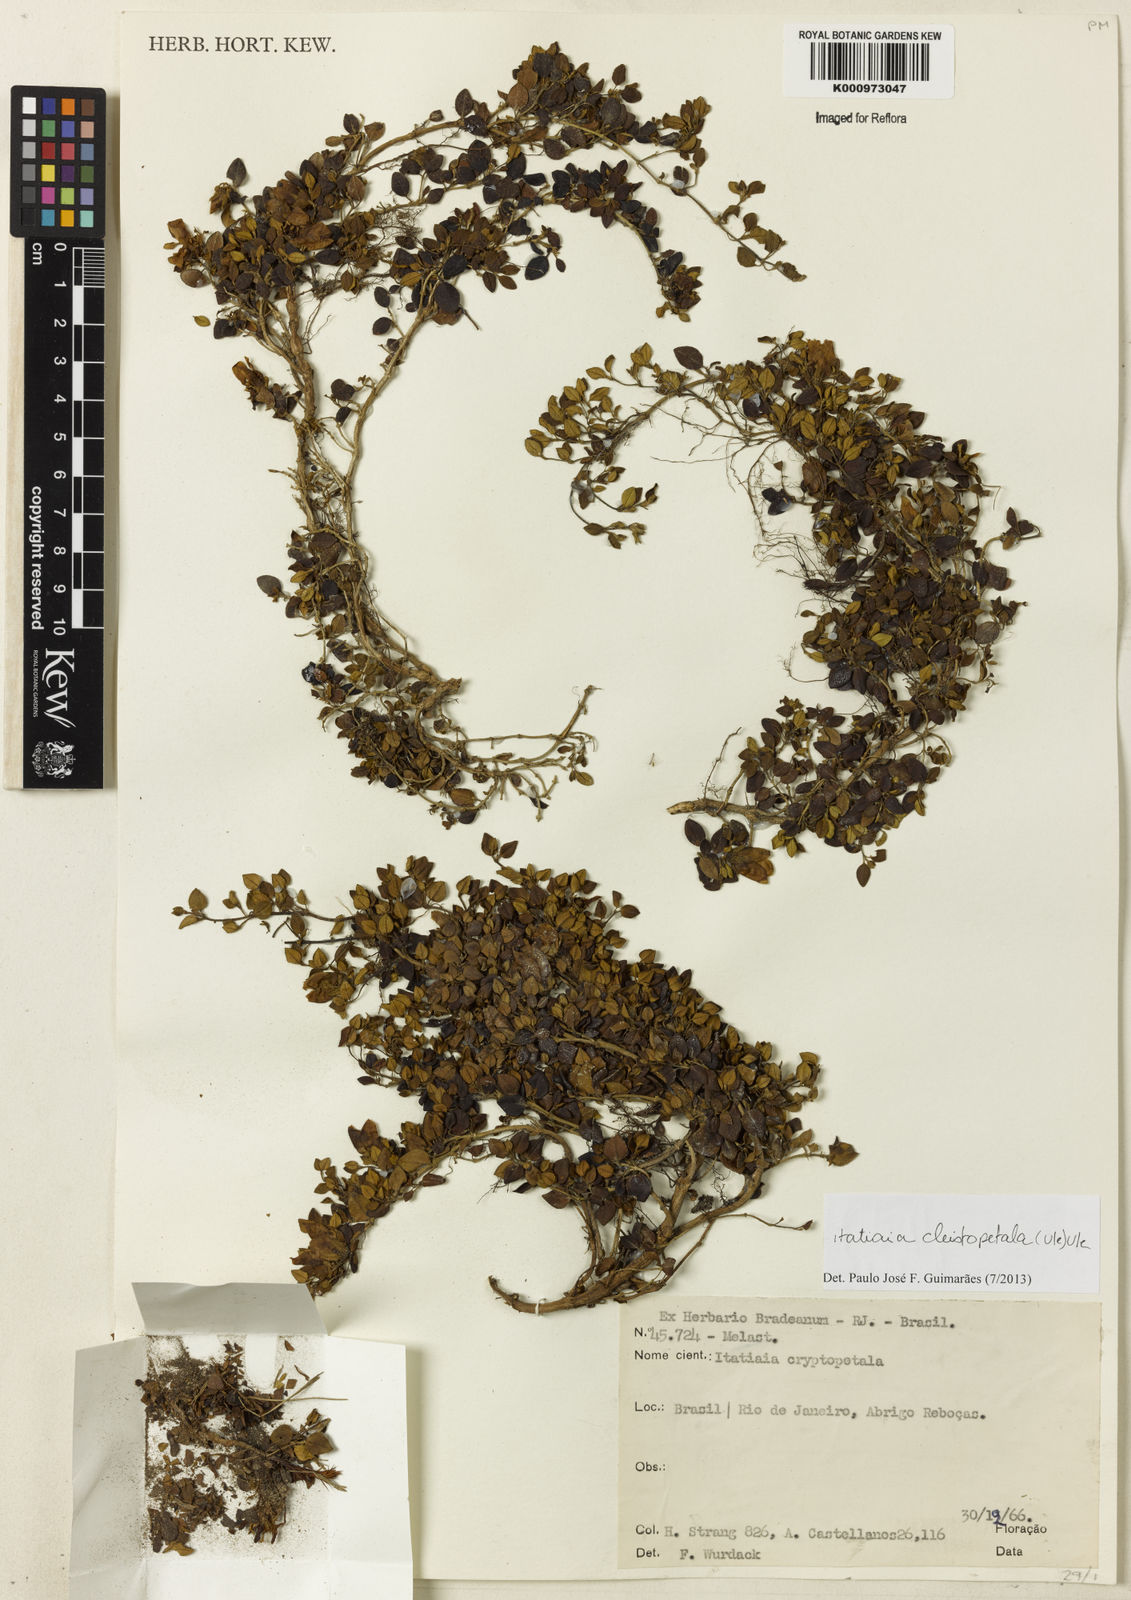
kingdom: Plantae
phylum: Tracheophyta
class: Magnoliopsida
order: Myrtales
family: Melastomataceae
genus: Pleroma
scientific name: Pleroma cleistoflora
